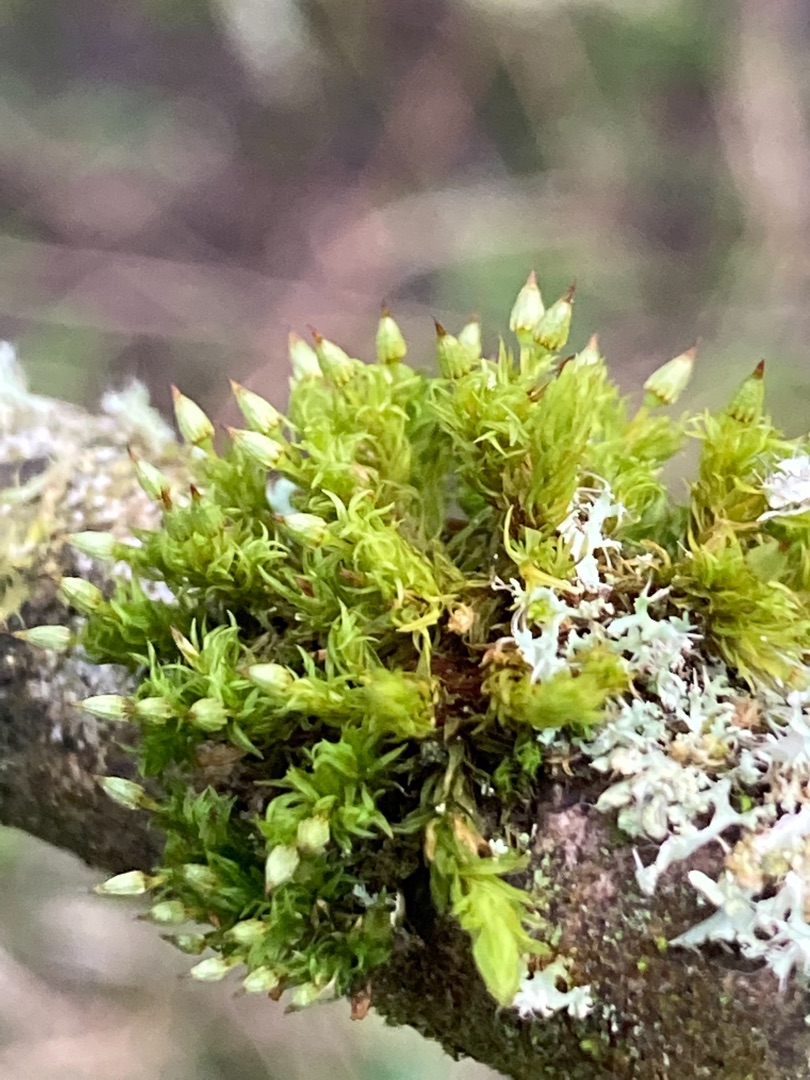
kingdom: Plantae
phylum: Bryophyta
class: Bryopsida
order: Orthotrichales
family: Orthotrichaceae
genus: Orthotrichum
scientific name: Orthotrichum pulchellum
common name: Smuk furehætte
